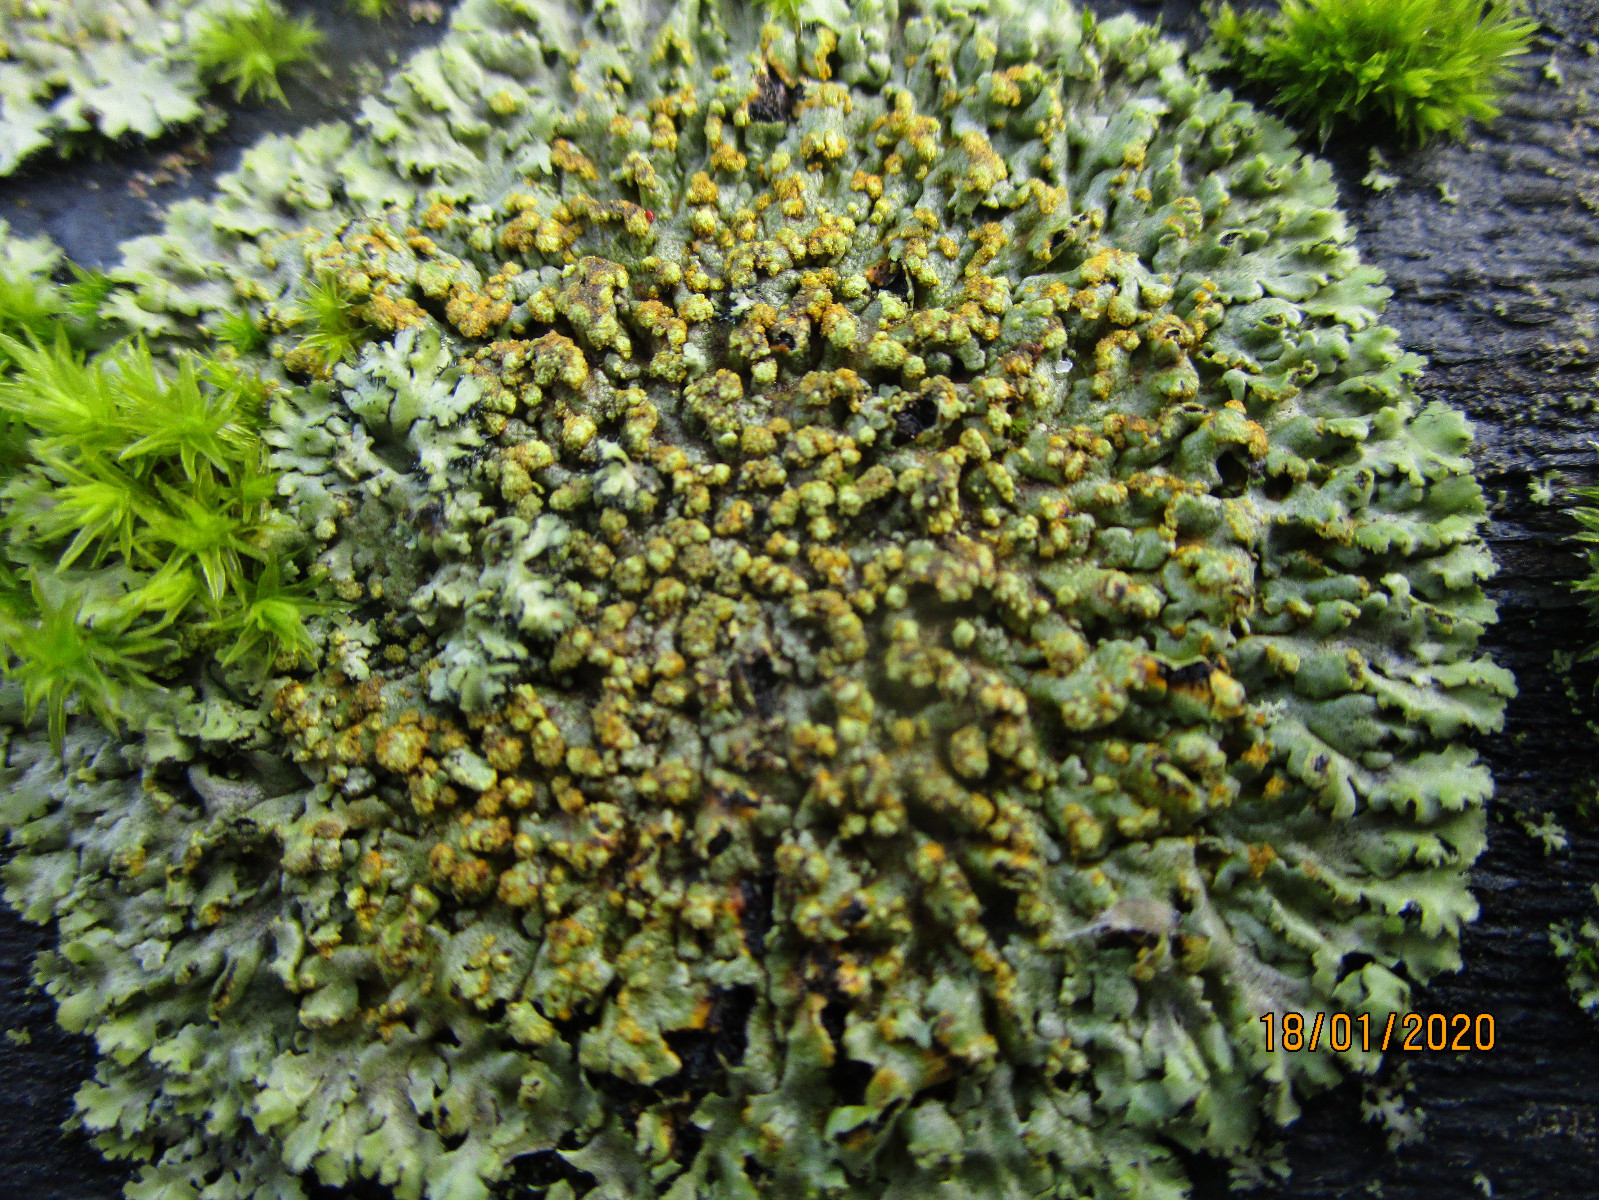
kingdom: Fungi
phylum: Ascomycota
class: Lecanoromycetes
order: Caliciales
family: Physciaceae
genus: Phaeophyscia
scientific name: Phaeophyscia orbicularis
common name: grågrøn rosetlav
